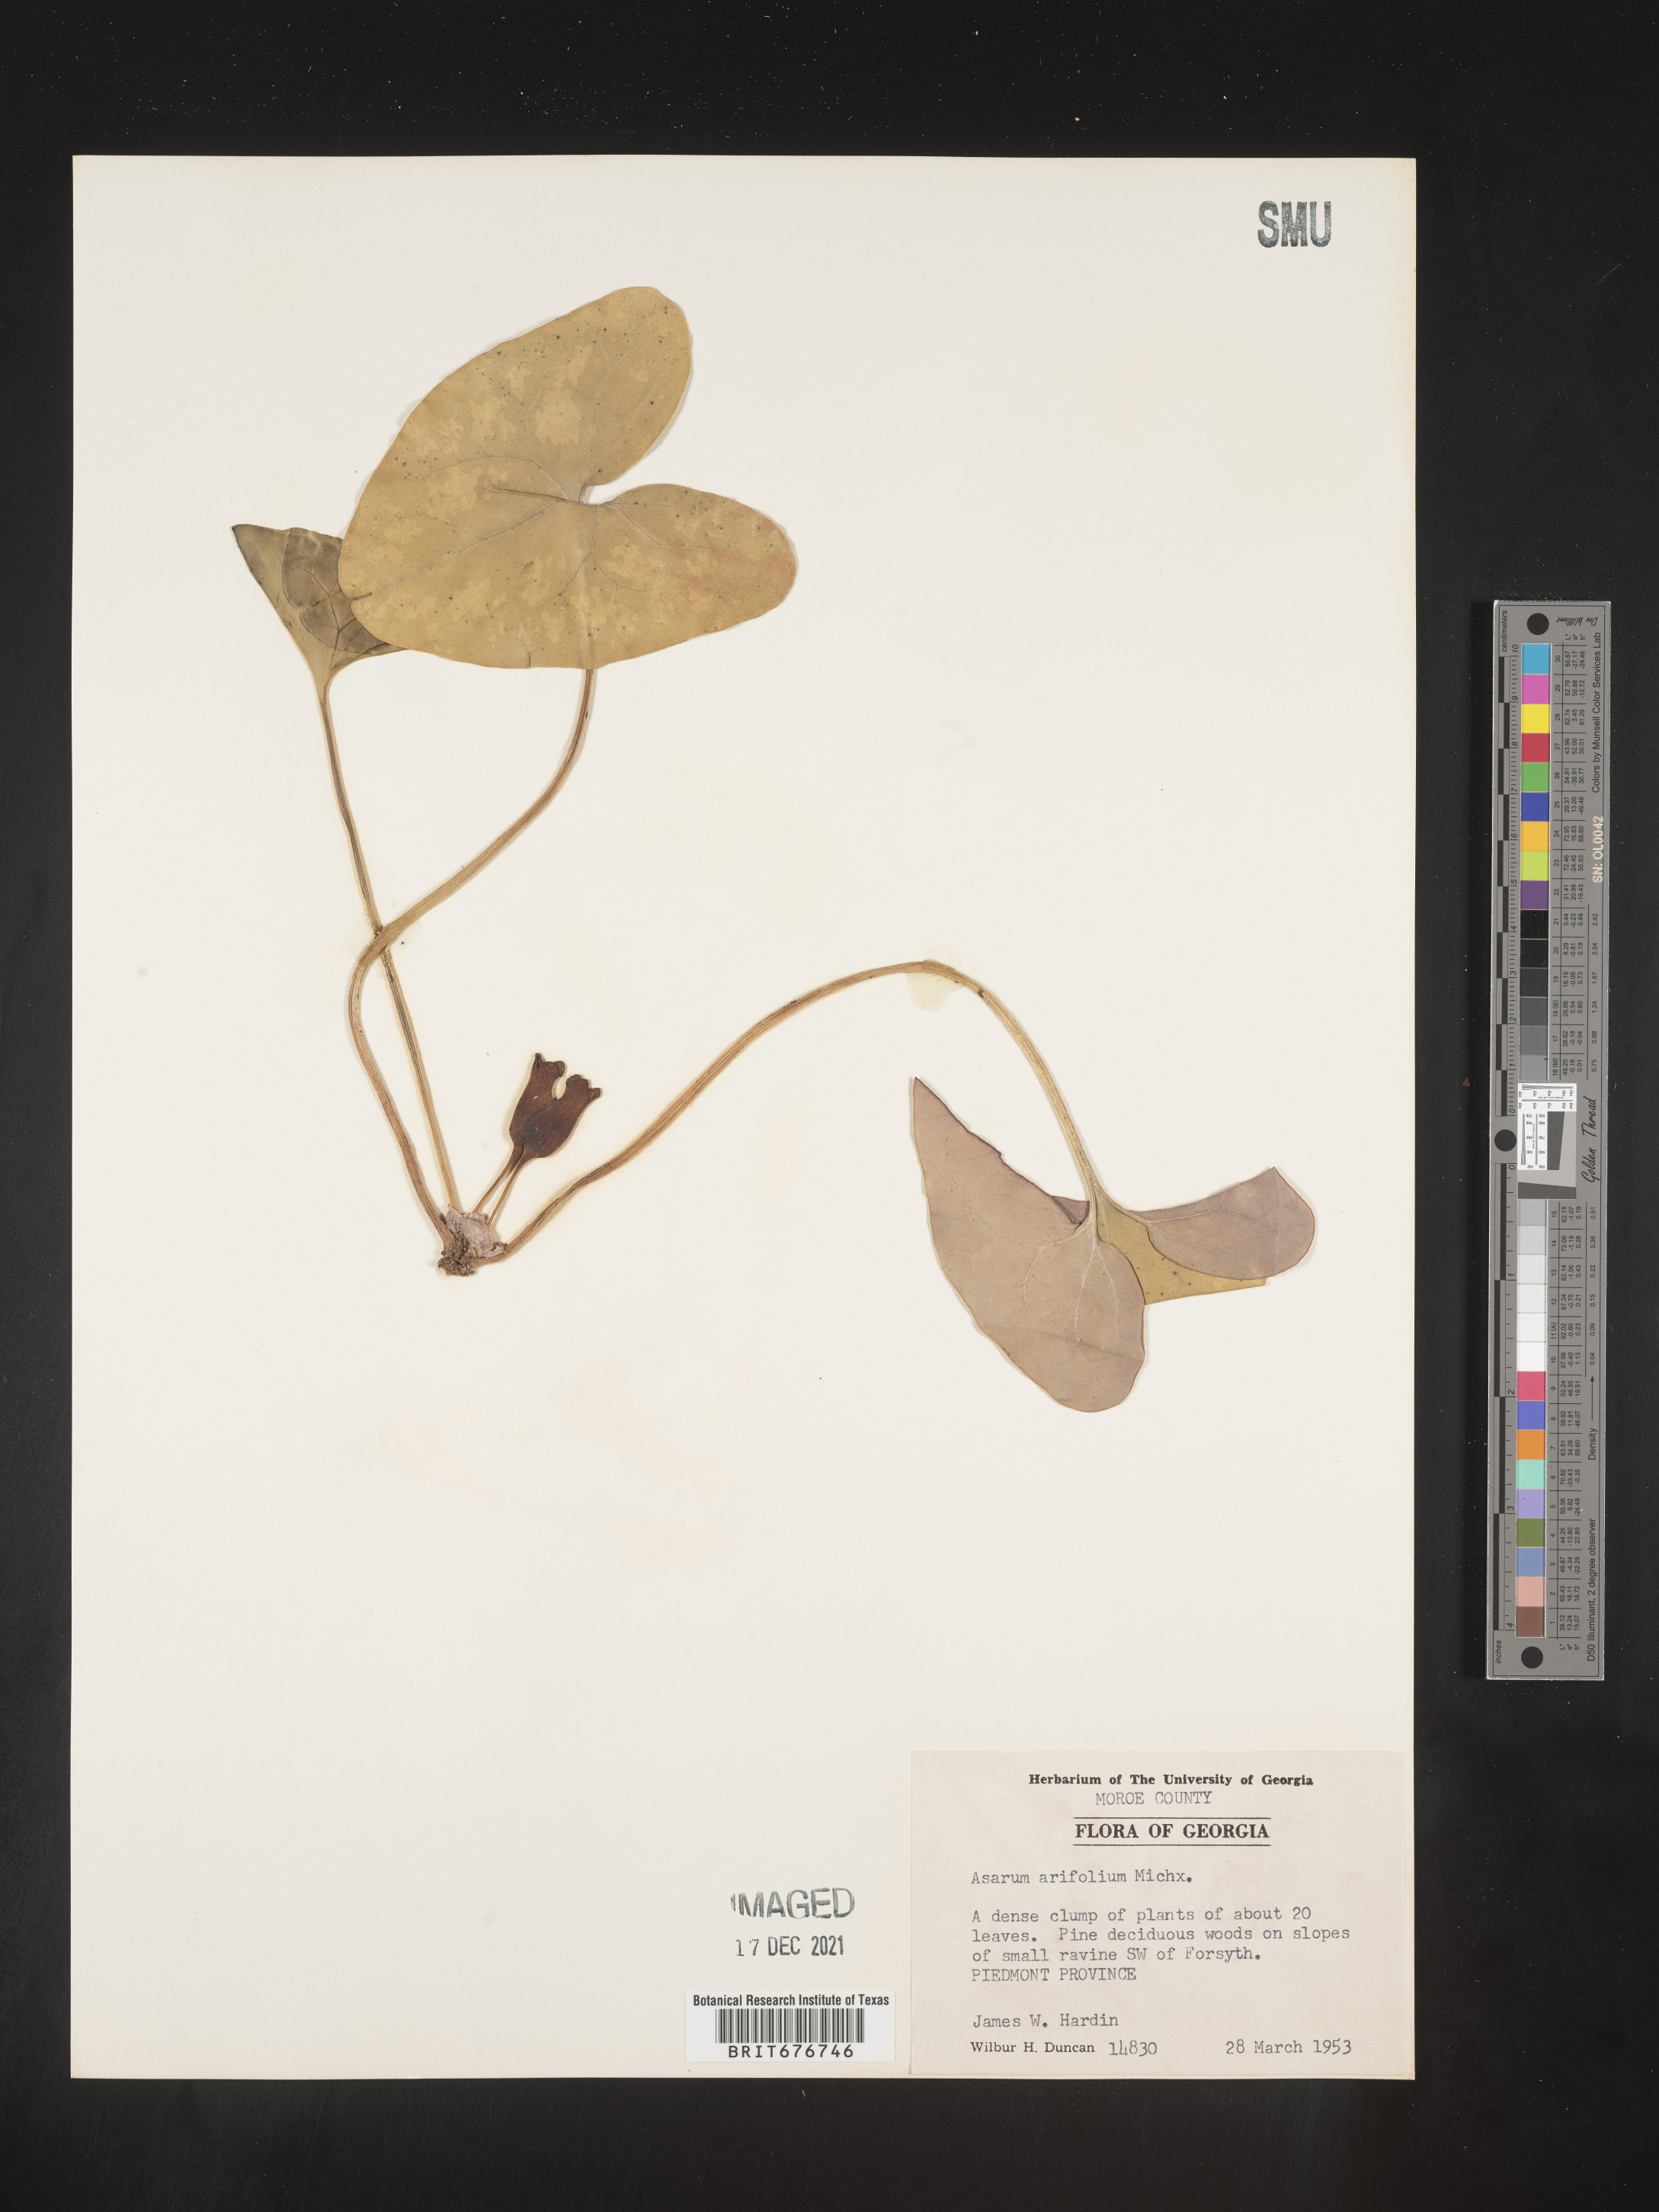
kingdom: Plantae
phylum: Tracheophyta
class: Magnoliopsida
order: Piperales
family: Aristolochiaceae
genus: Hexastylis
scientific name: Hexastylis arifolia
